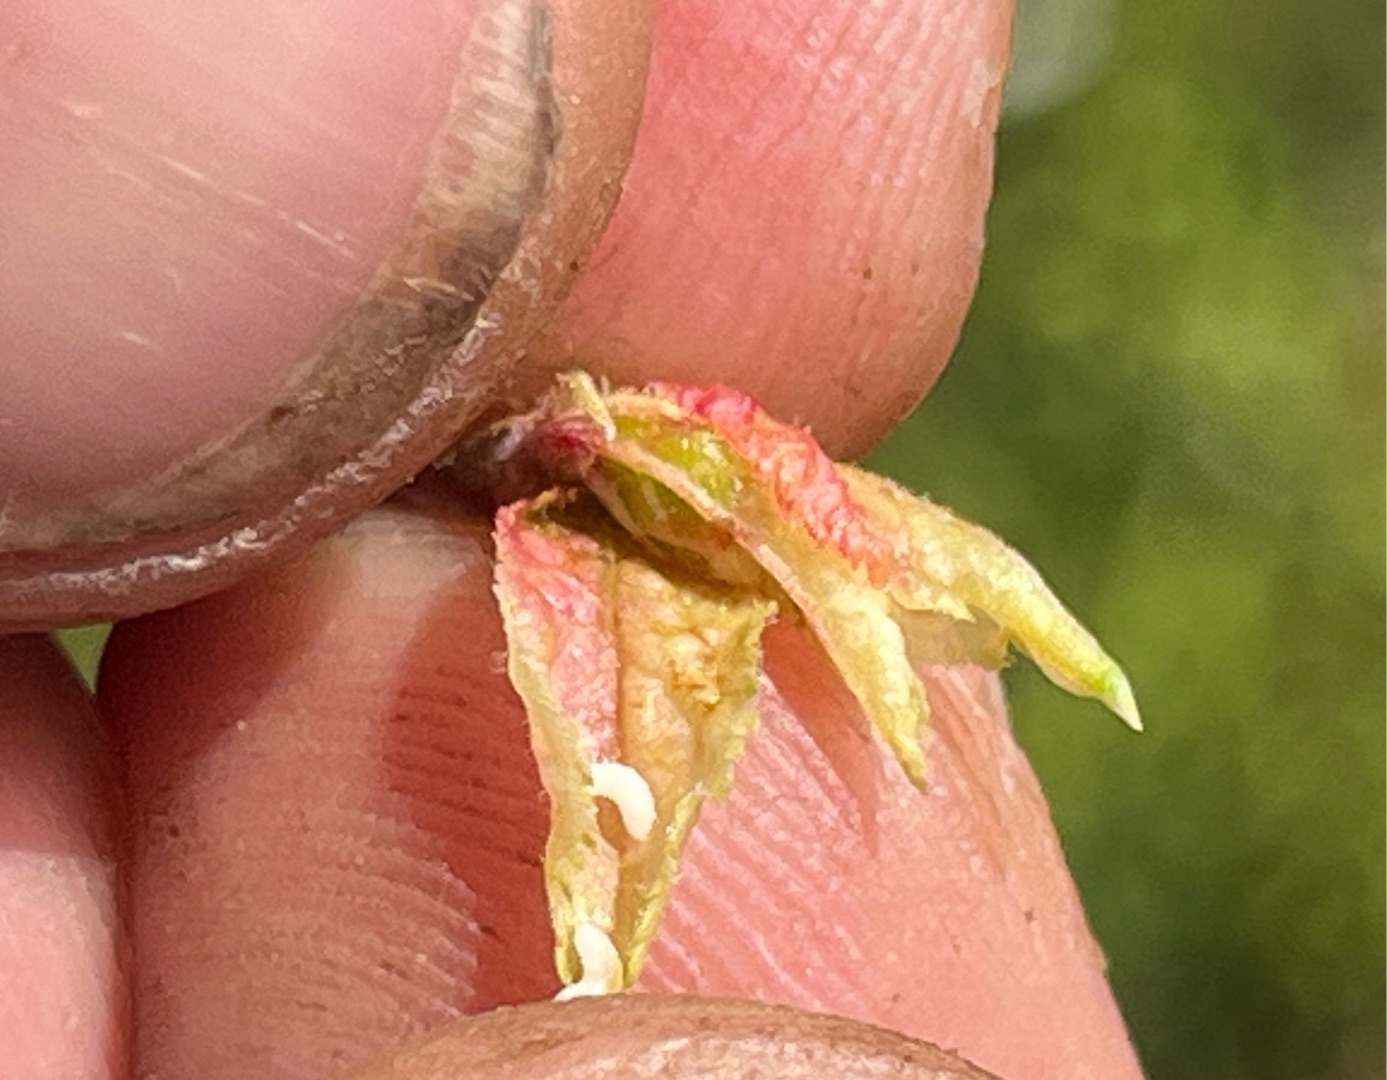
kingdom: Animalia
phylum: Arthropoda
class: Insecta
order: Diptera
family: Cecidomyiidae
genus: Dasineura
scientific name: Dasineura tortrix
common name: Slåenskudgalmyg
